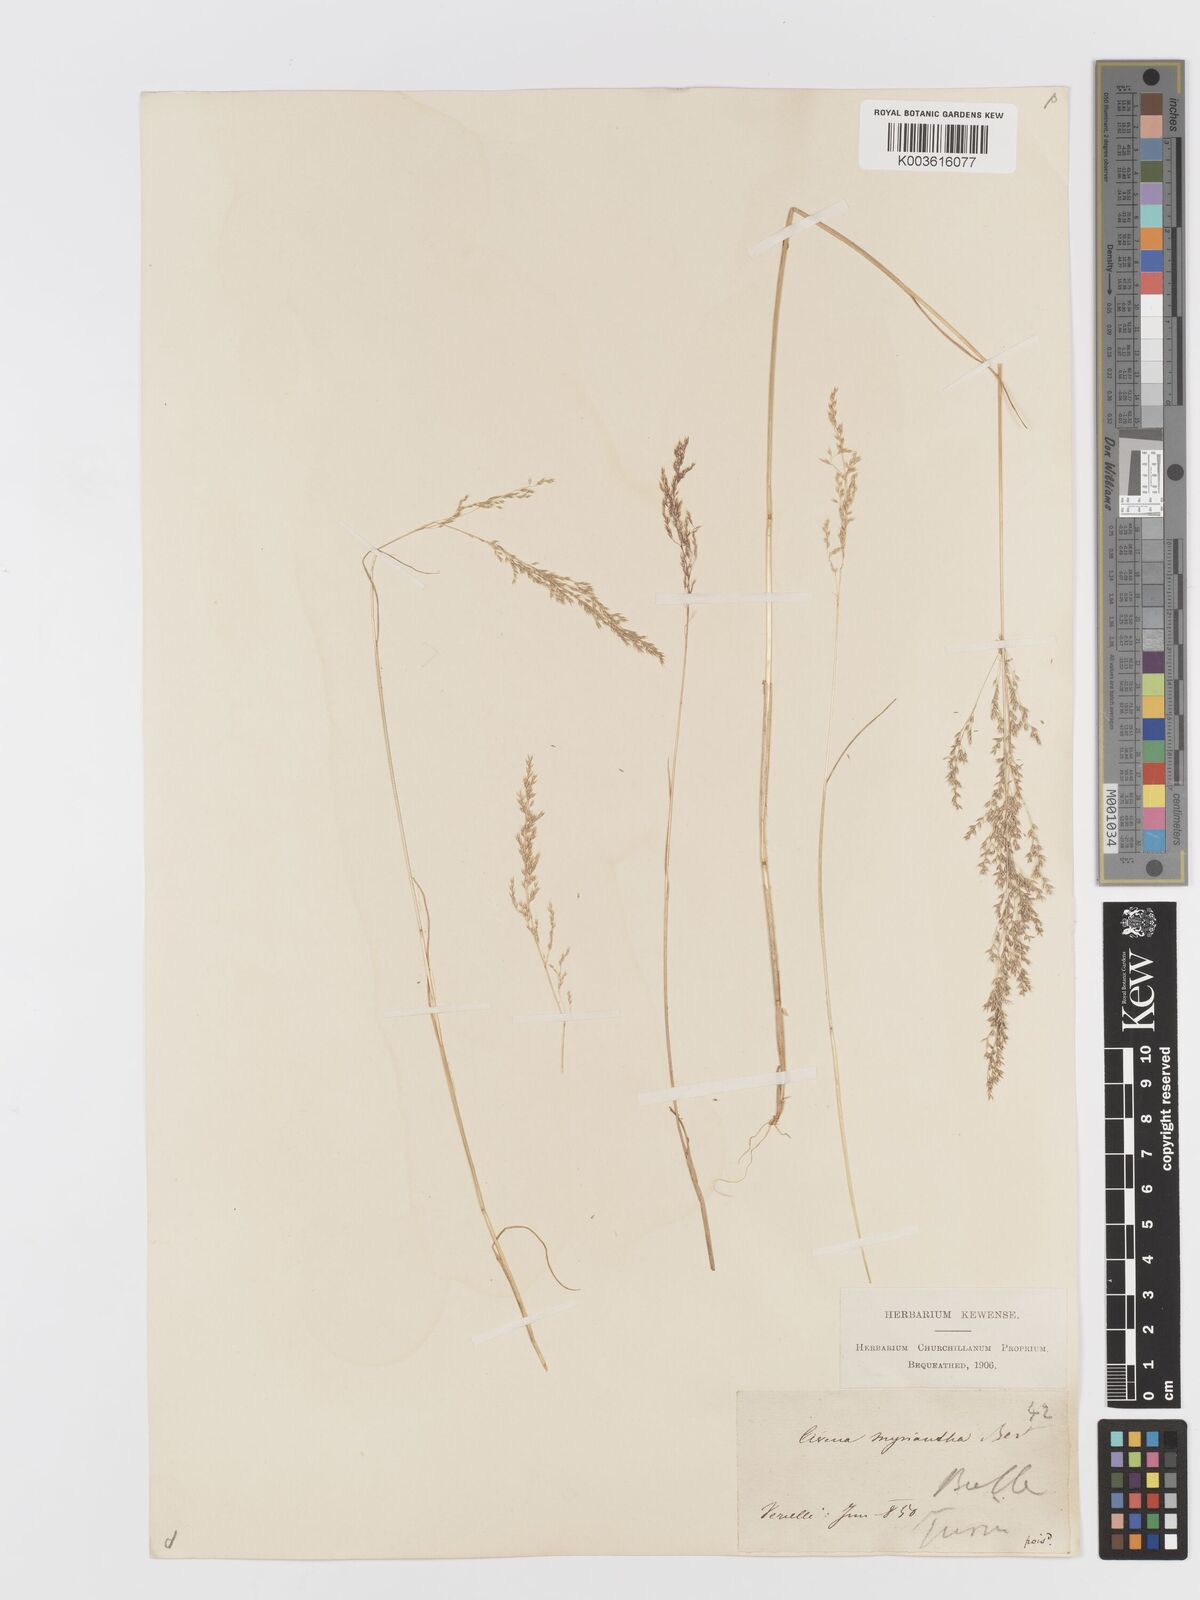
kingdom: Plantae
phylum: Tracheophyta
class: Liliopsida
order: Poales
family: Poaceae
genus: Parvotrisetum
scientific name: Parvotrisetum myrianthum
